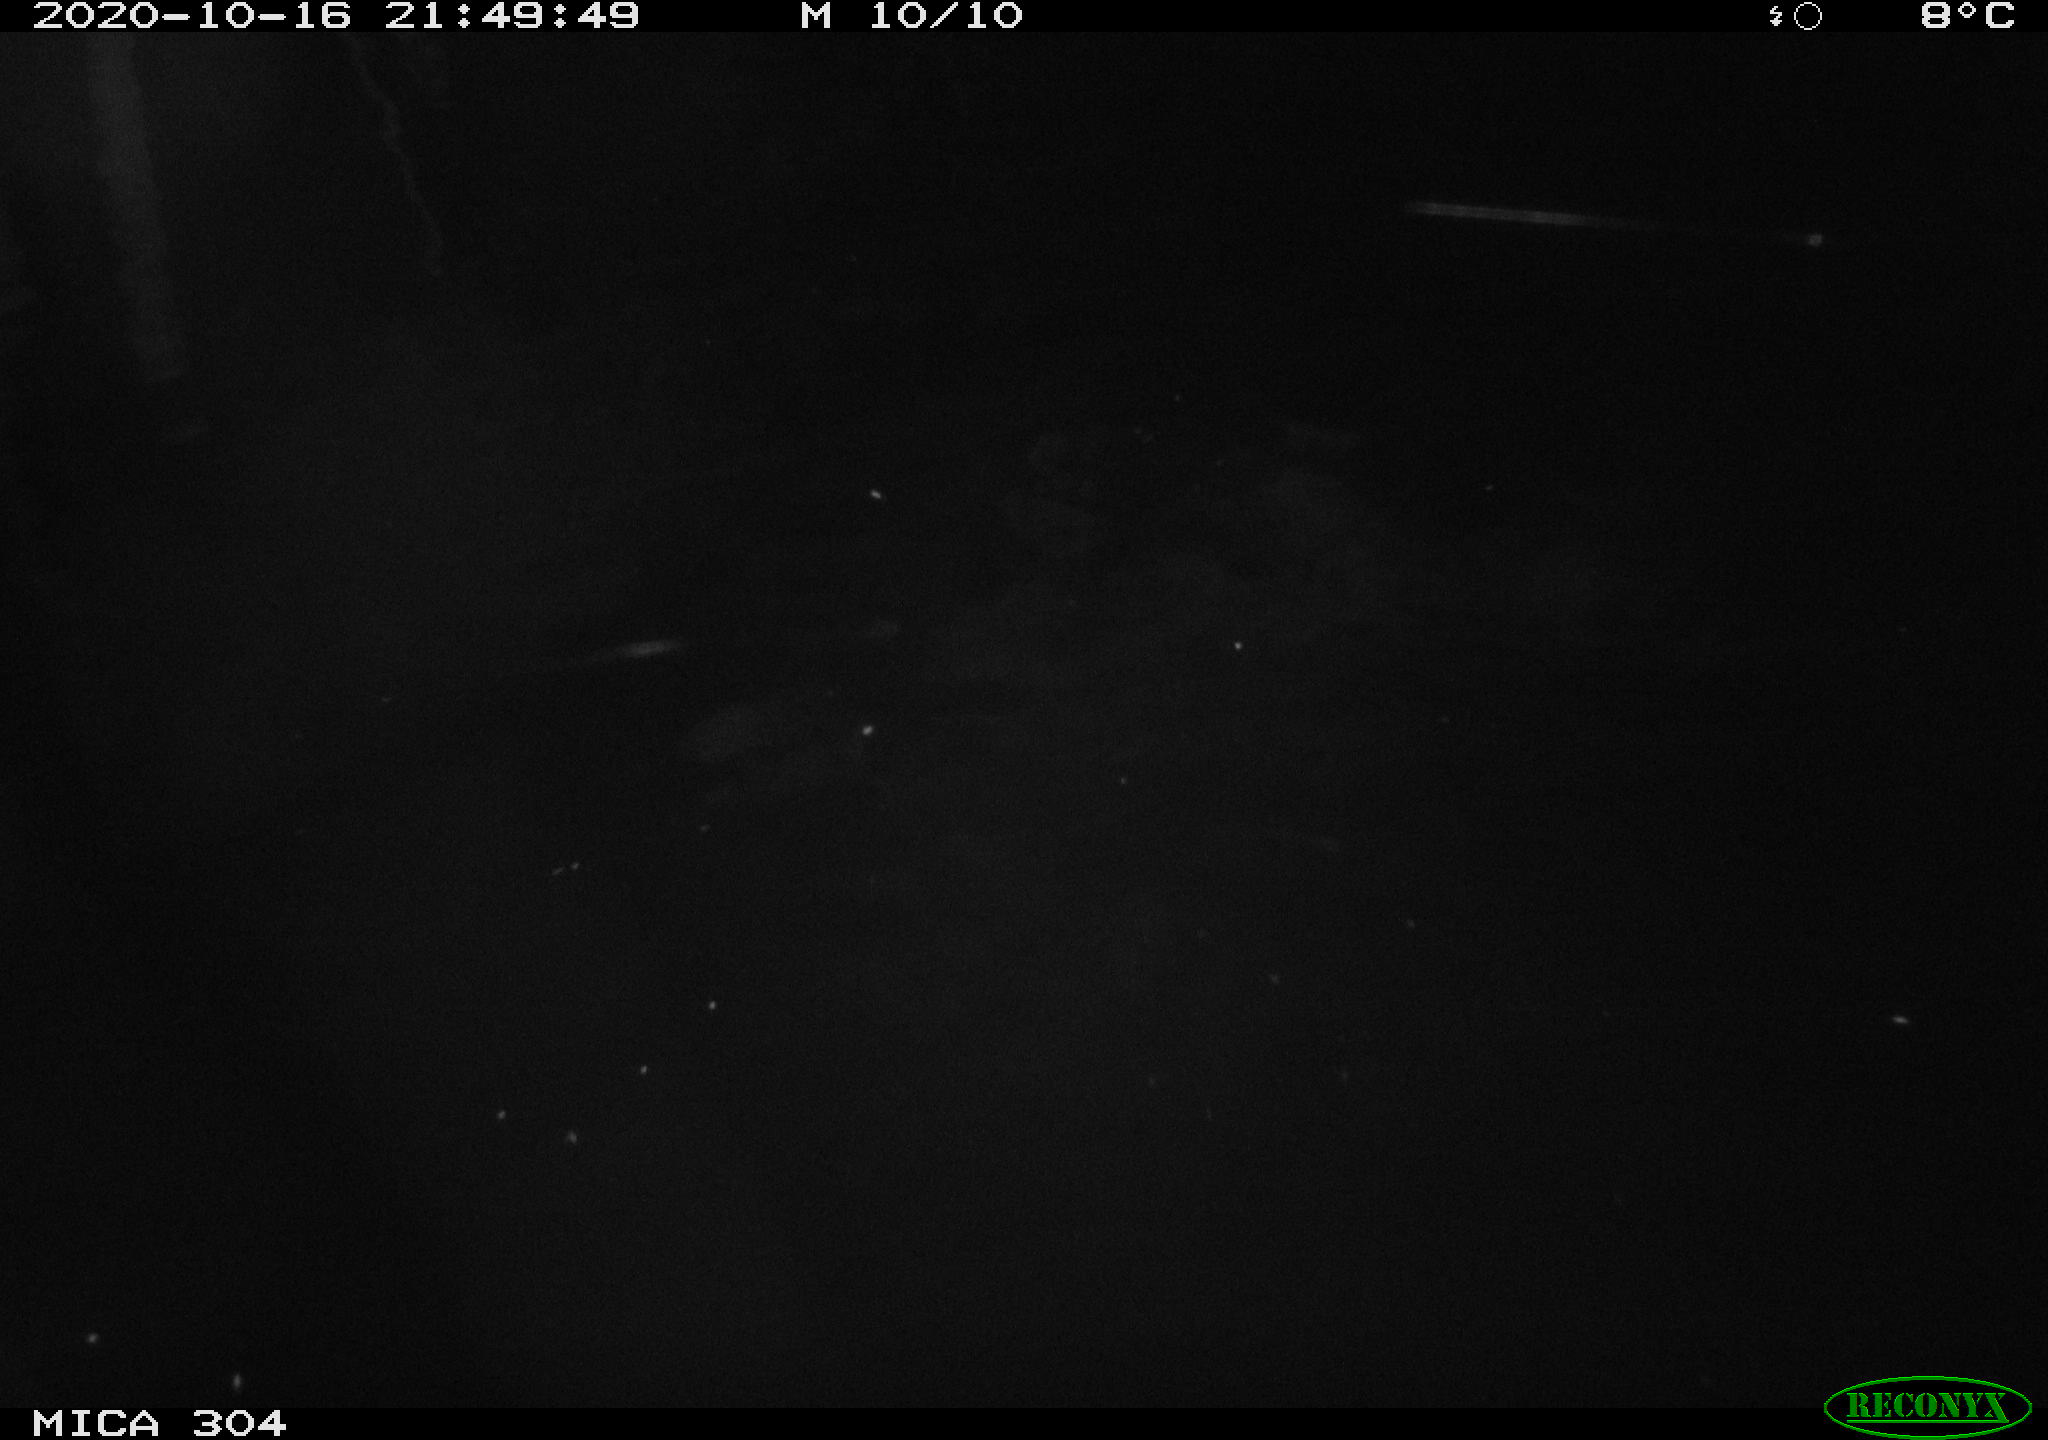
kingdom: Animalia
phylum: Chordata
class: Mammalia
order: Rodentia
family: Cricetidae
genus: Ondatra
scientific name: Ondatra zibethicus
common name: Muskrat
